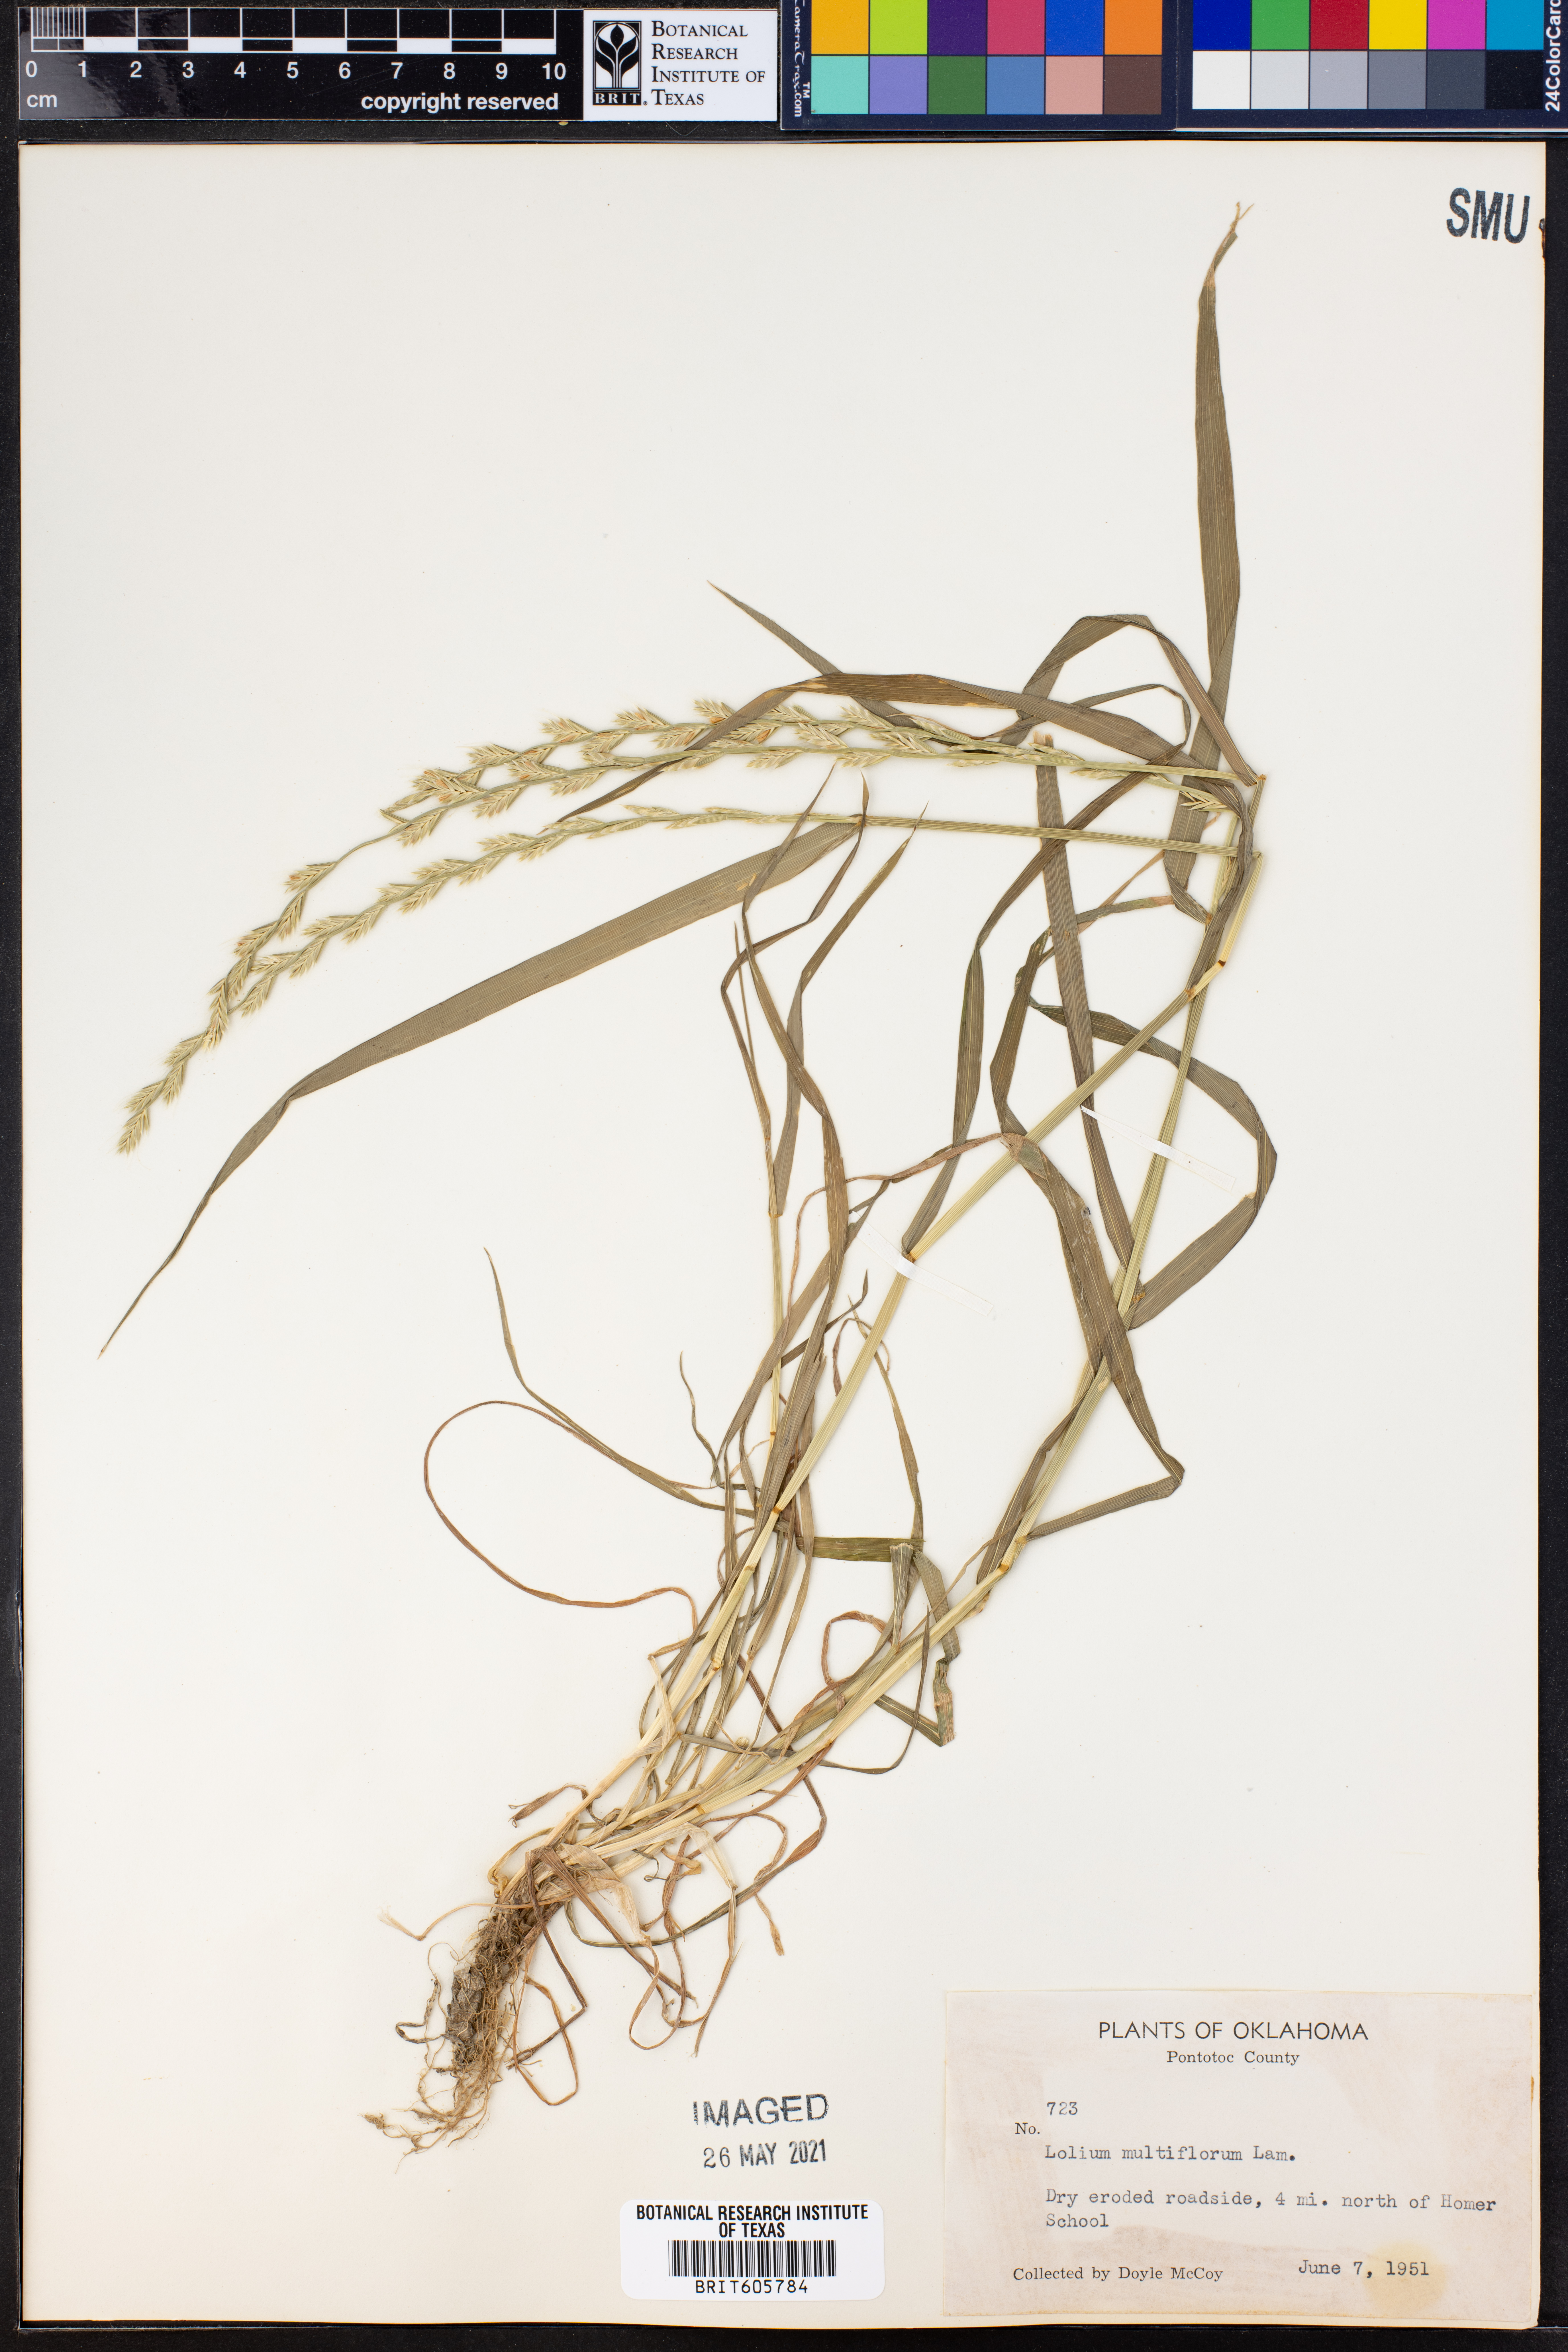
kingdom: Plantae
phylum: Tracheophyta
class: Liliopsida
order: Poales
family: Poaceae
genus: Lolium
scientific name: Lolium multiflorum
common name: Annual ryegrass
